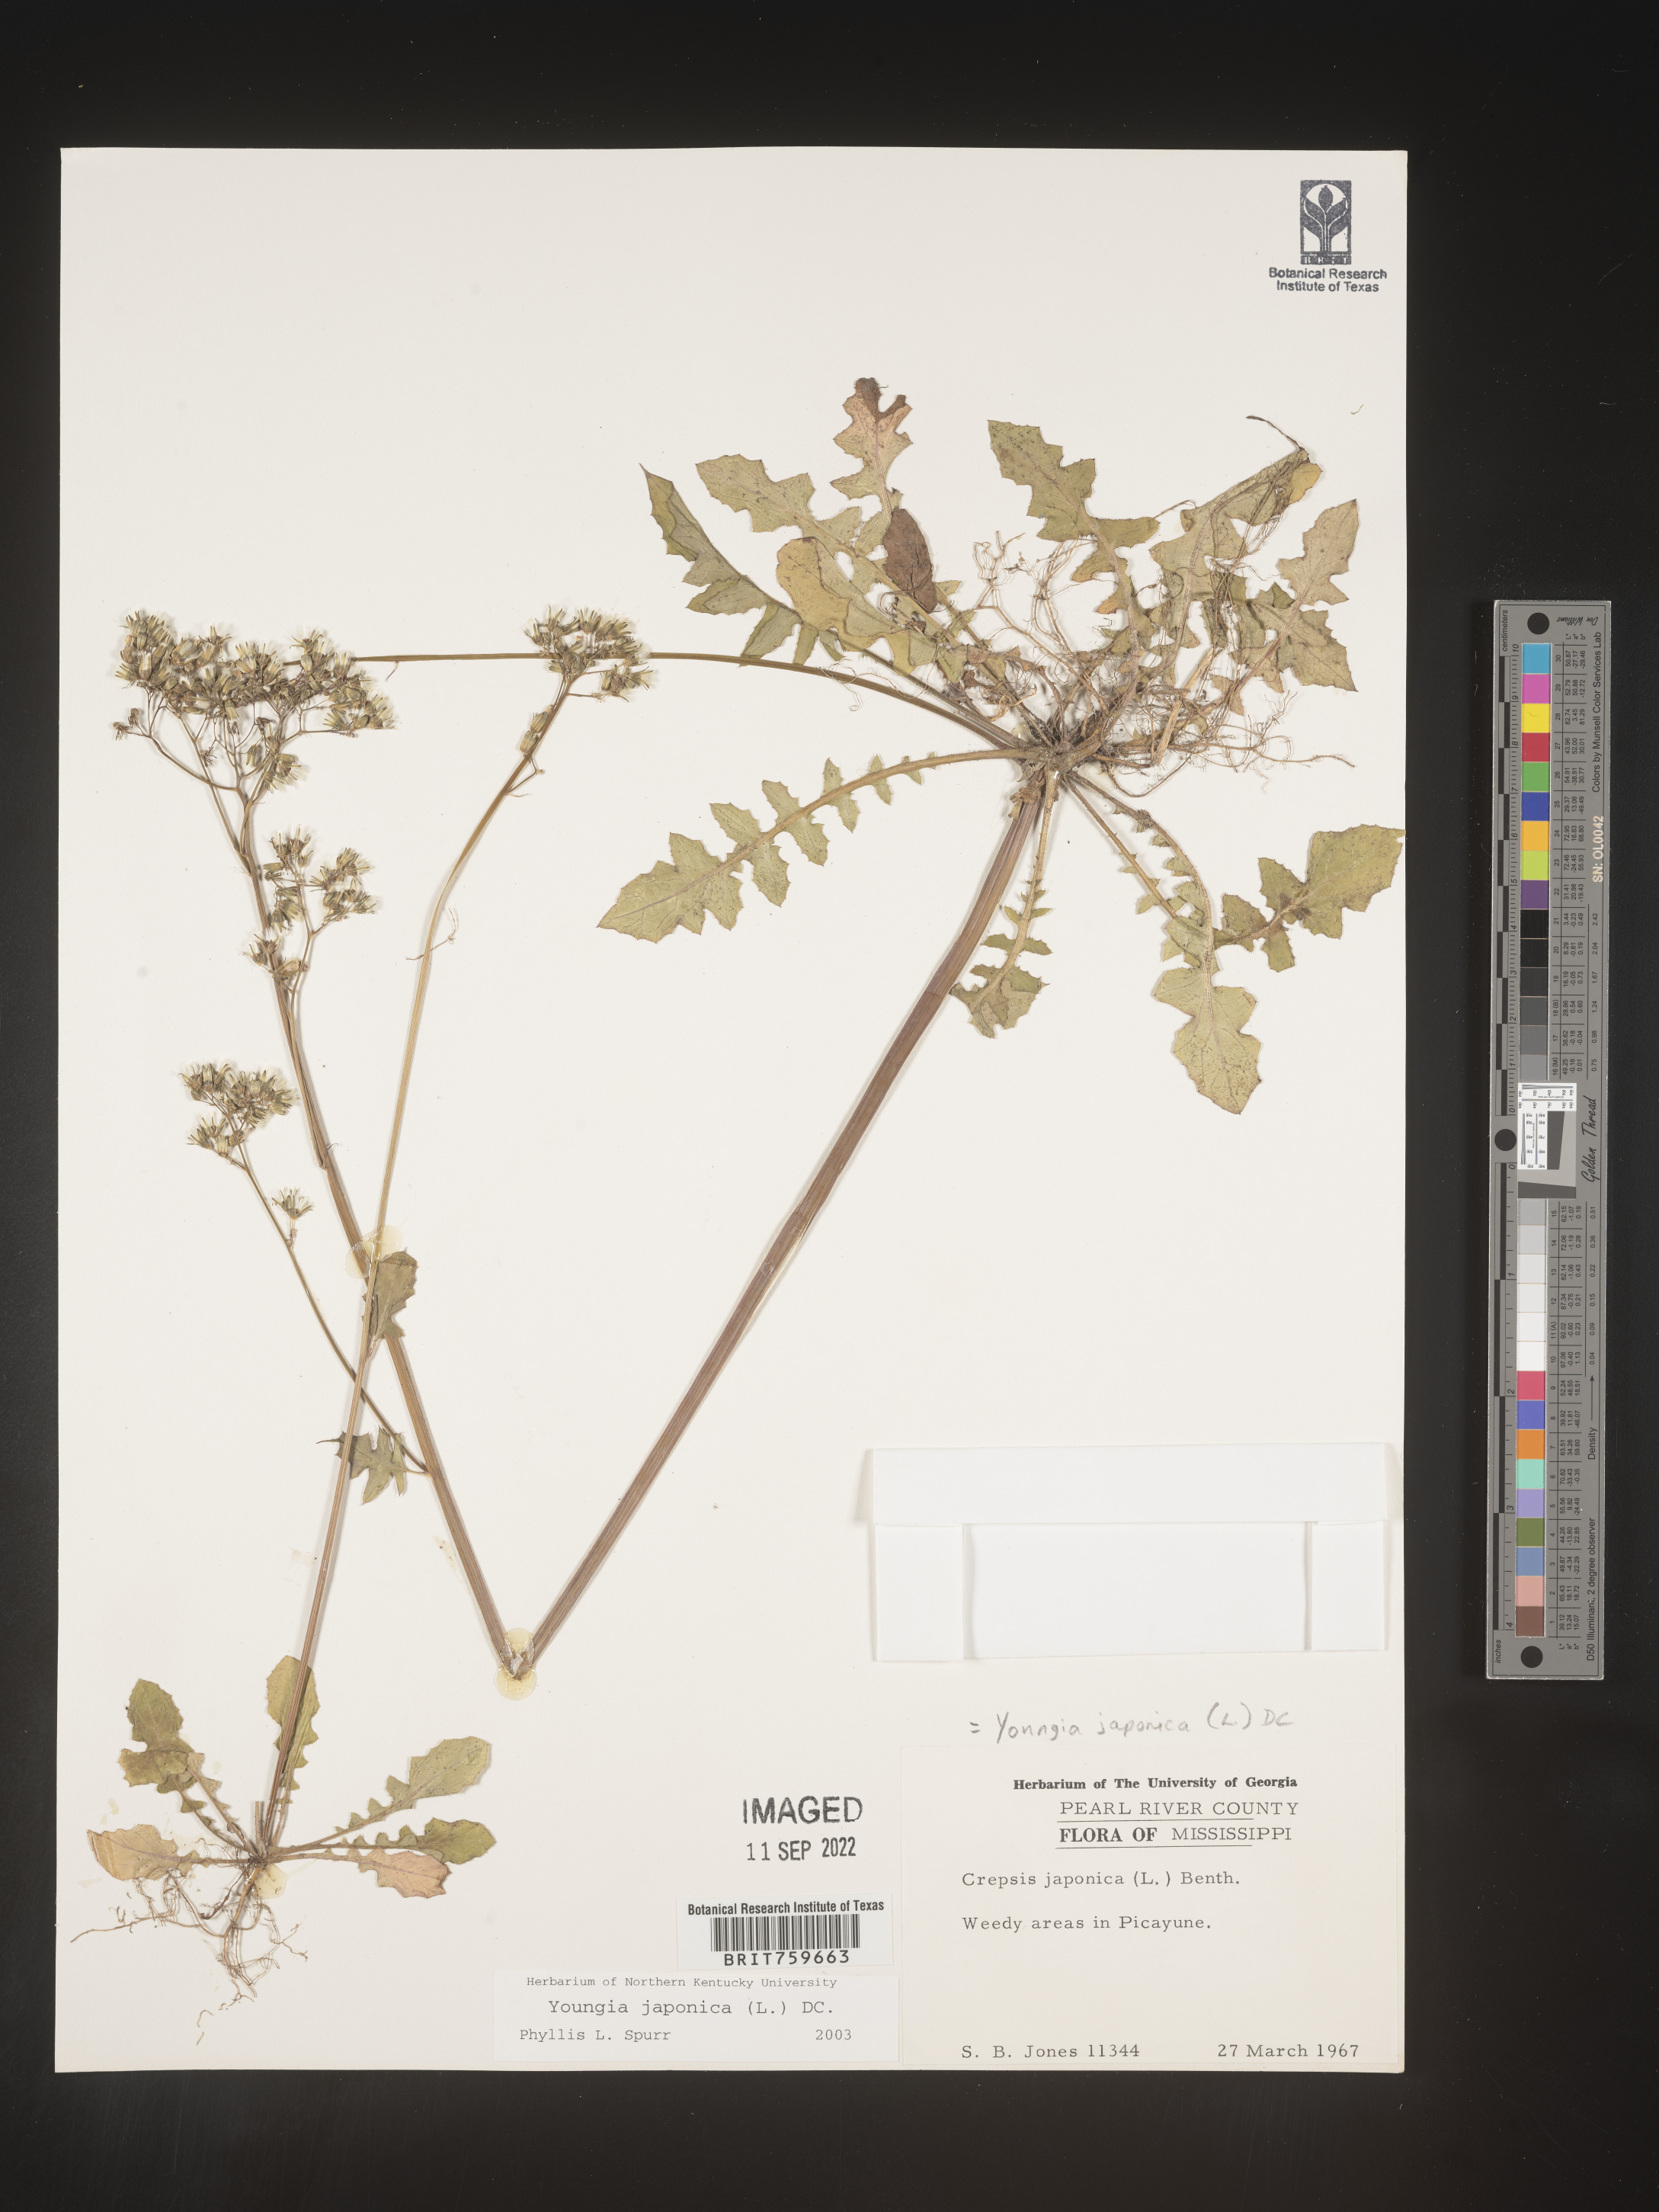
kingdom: Plantae
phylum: Tracheophyta
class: Magnoliopsida
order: Asterales
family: Asteraceae
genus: Youngia
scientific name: Youngia japonica
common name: Oriental false hawksbeard
